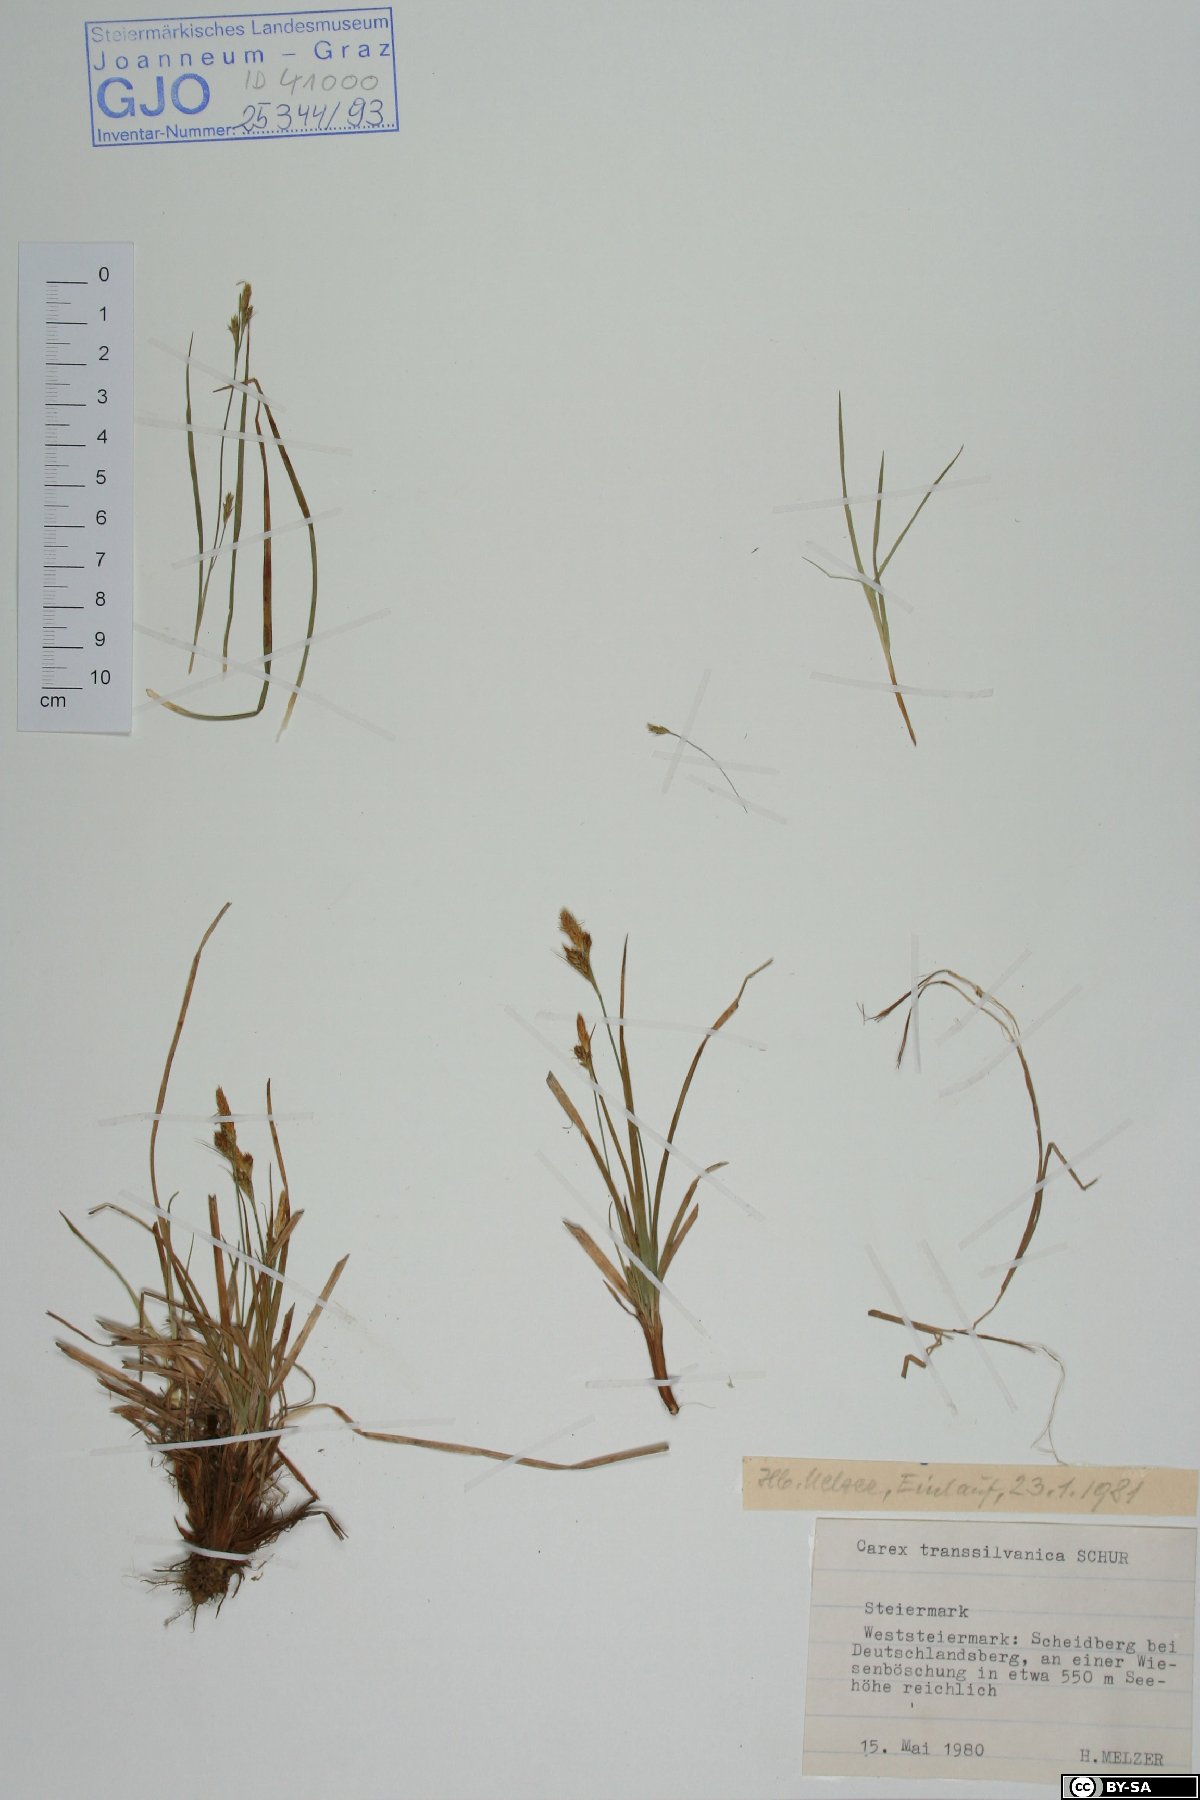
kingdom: Plantae
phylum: Tracheophyta
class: Liliopsida
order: Poales
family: Cyperaceae
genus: Carex
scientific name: Carex depressa
